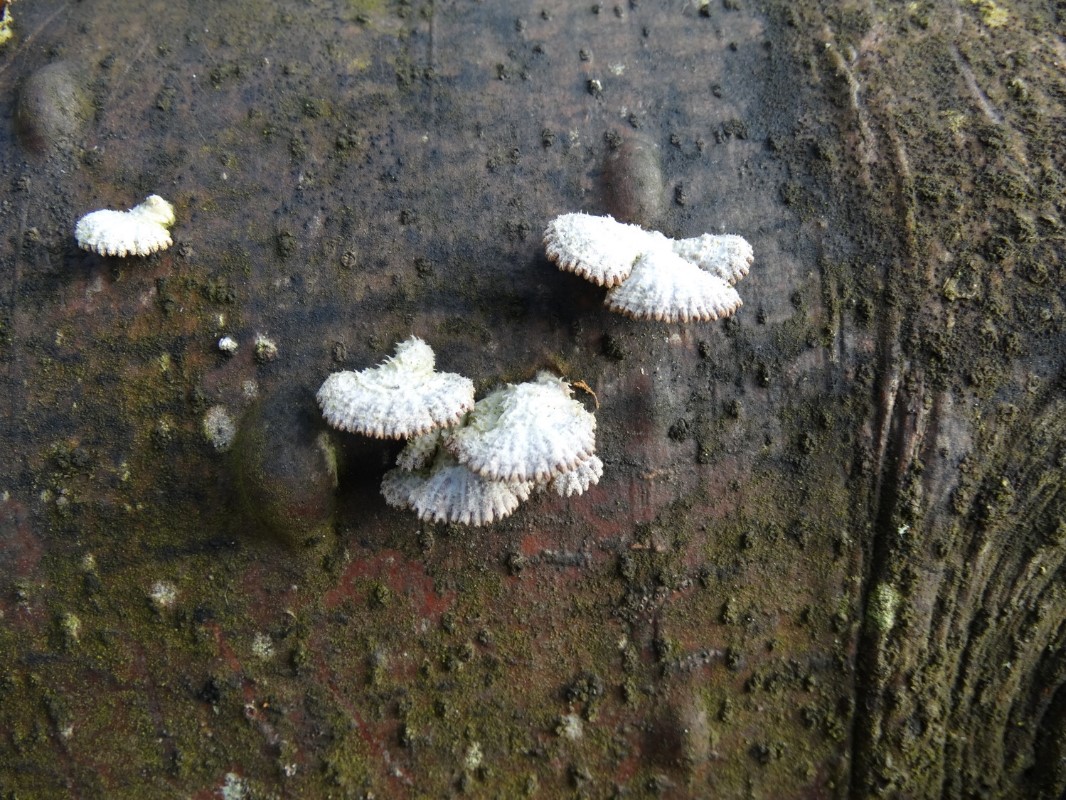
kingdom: Fungi
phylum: Basidiomycota
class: Agaricomycetes
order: Agaricales
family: Schizophyllaceae
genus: Schizophyllum
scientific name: Schizophyllum commune
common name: kløvblad
